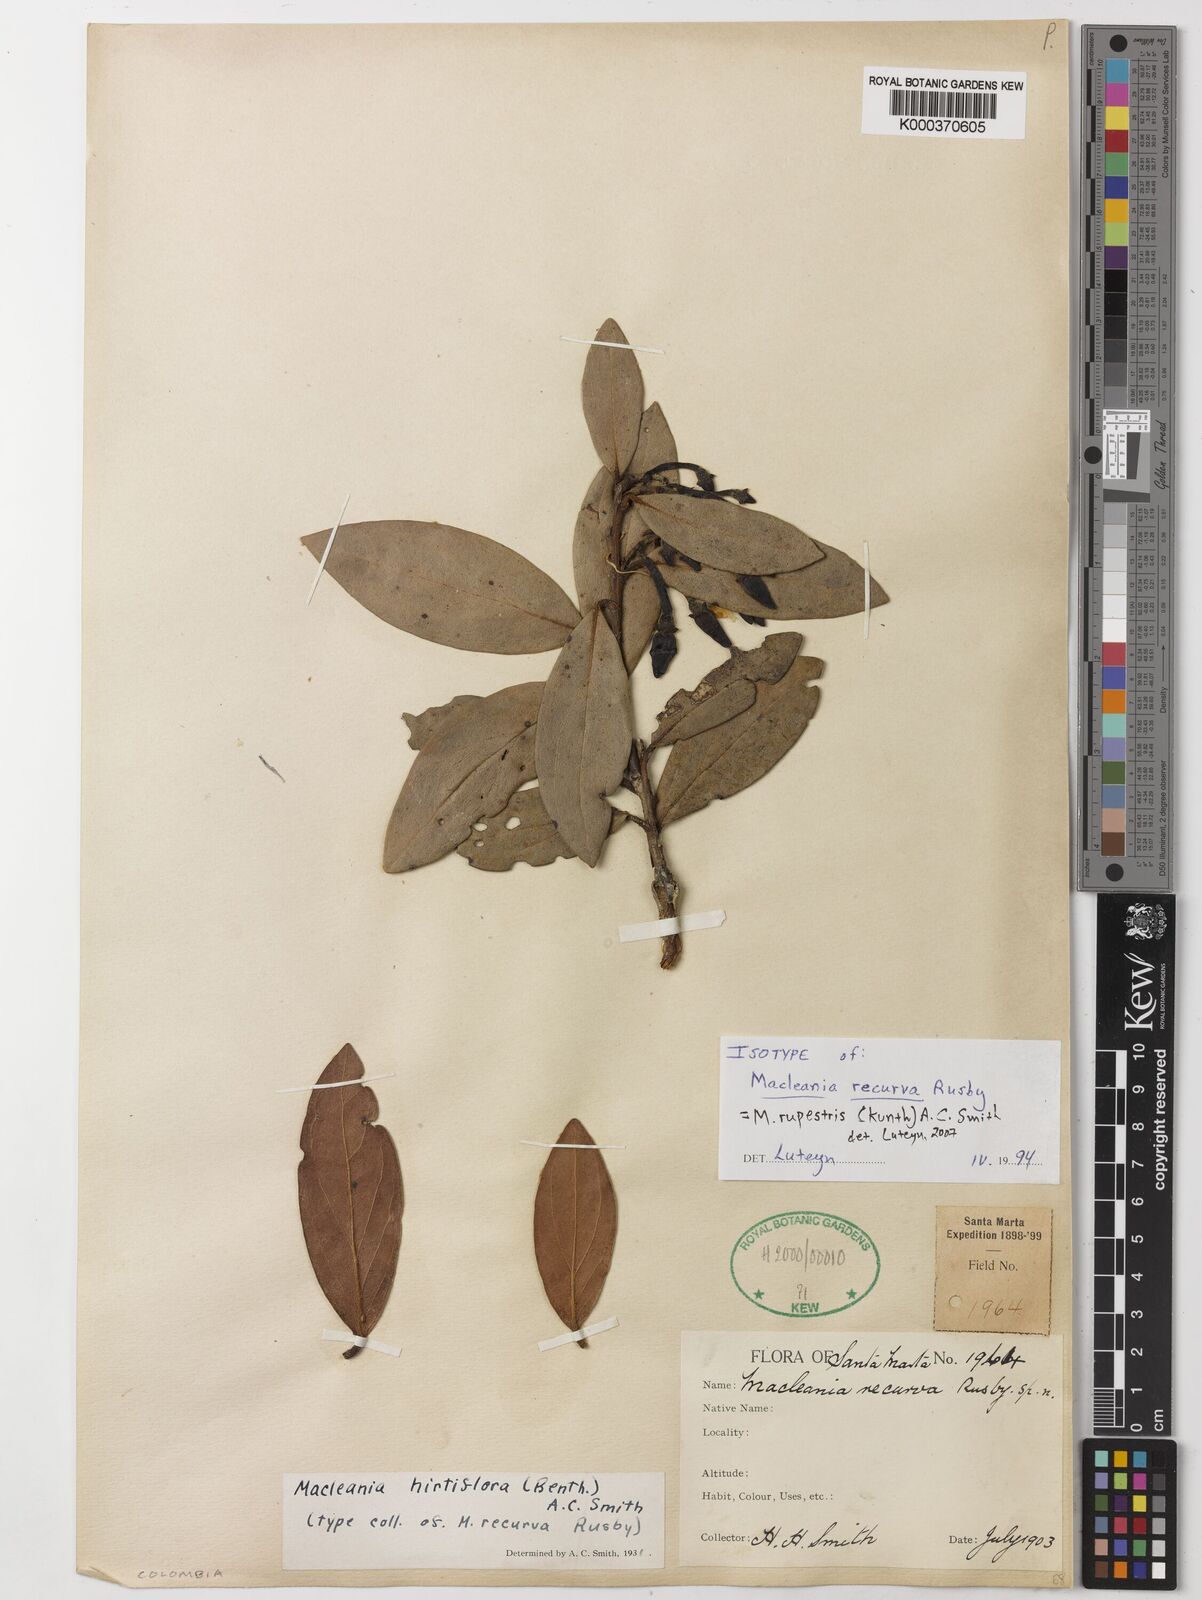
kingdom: Plantae
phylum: Tracheophyta
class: Magnoliopsida
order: Ericales
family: Ericaceae
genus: Macleania
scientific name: Macleania rupestris
